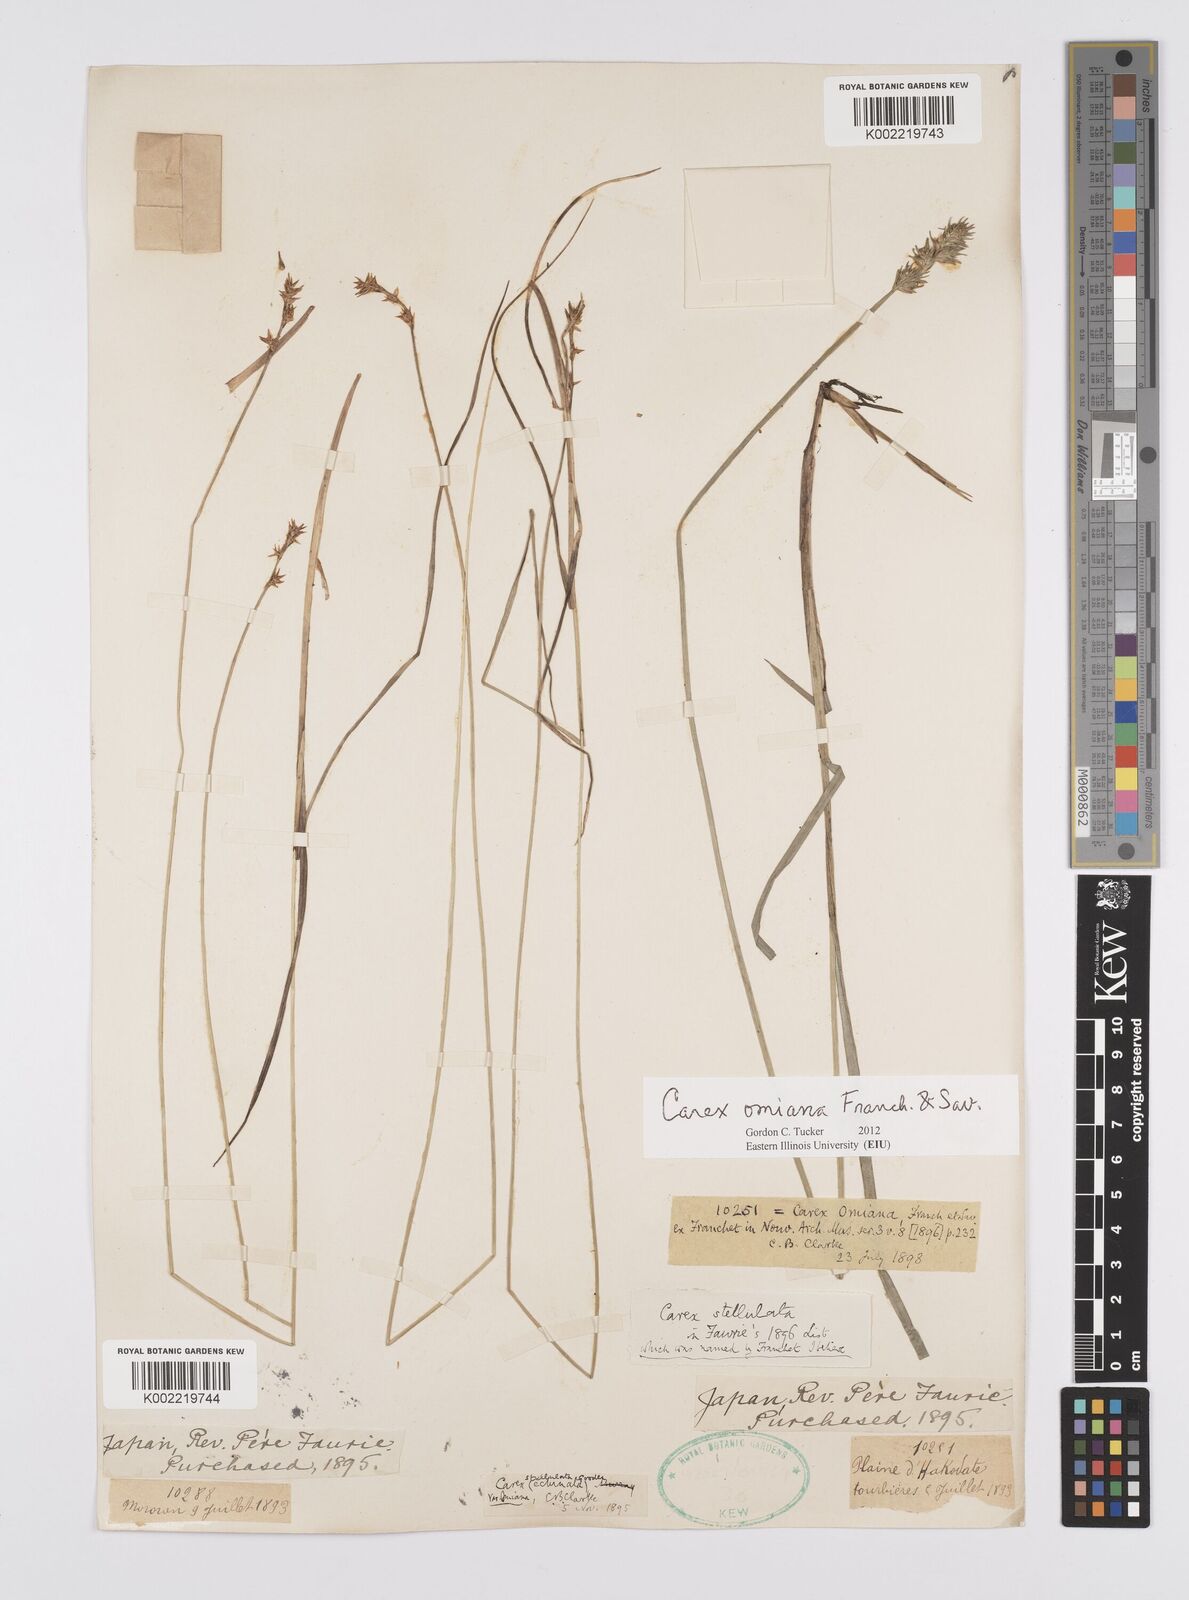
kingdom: Plantae
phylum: Tracheophyta
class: Liliopsida
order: Poales
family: Cyperaceae
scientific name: Cyperaceae
